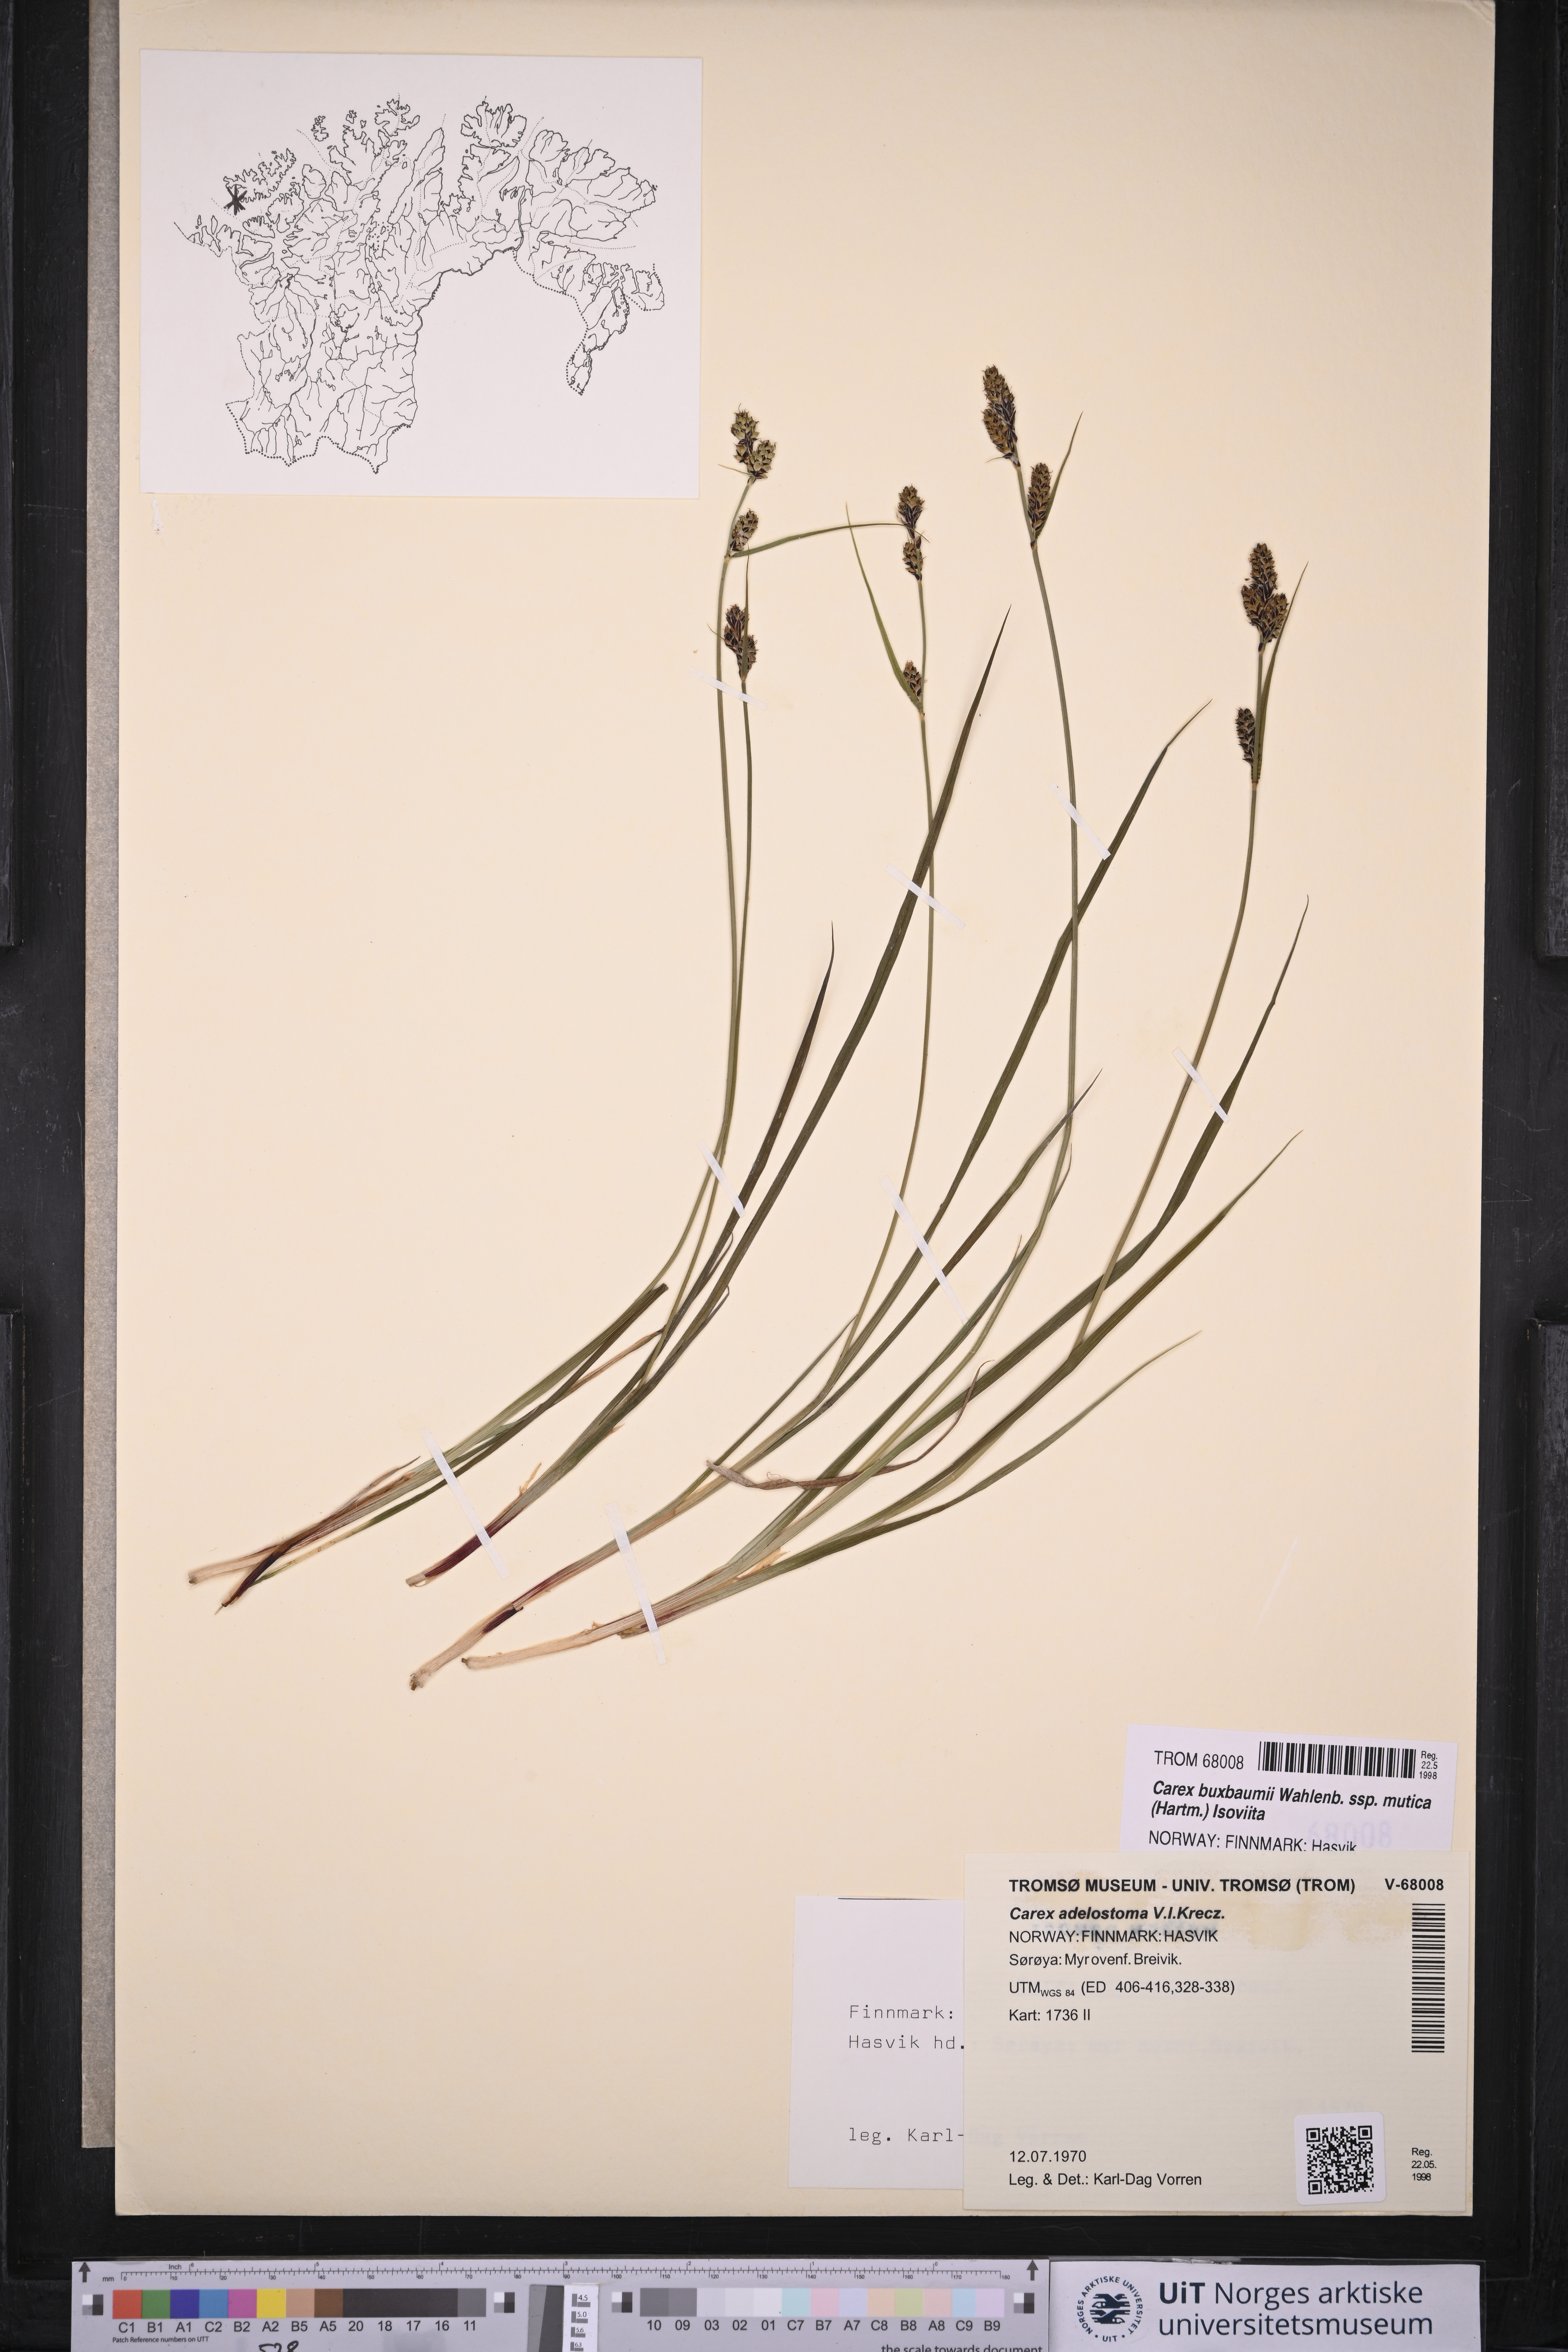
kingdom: Plantae
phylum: Tracheophyta
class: Liliopsida
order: Poales
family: Cyperaceae
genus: Carex
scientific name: Carex adelostoma
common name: Circumpolar sedge
